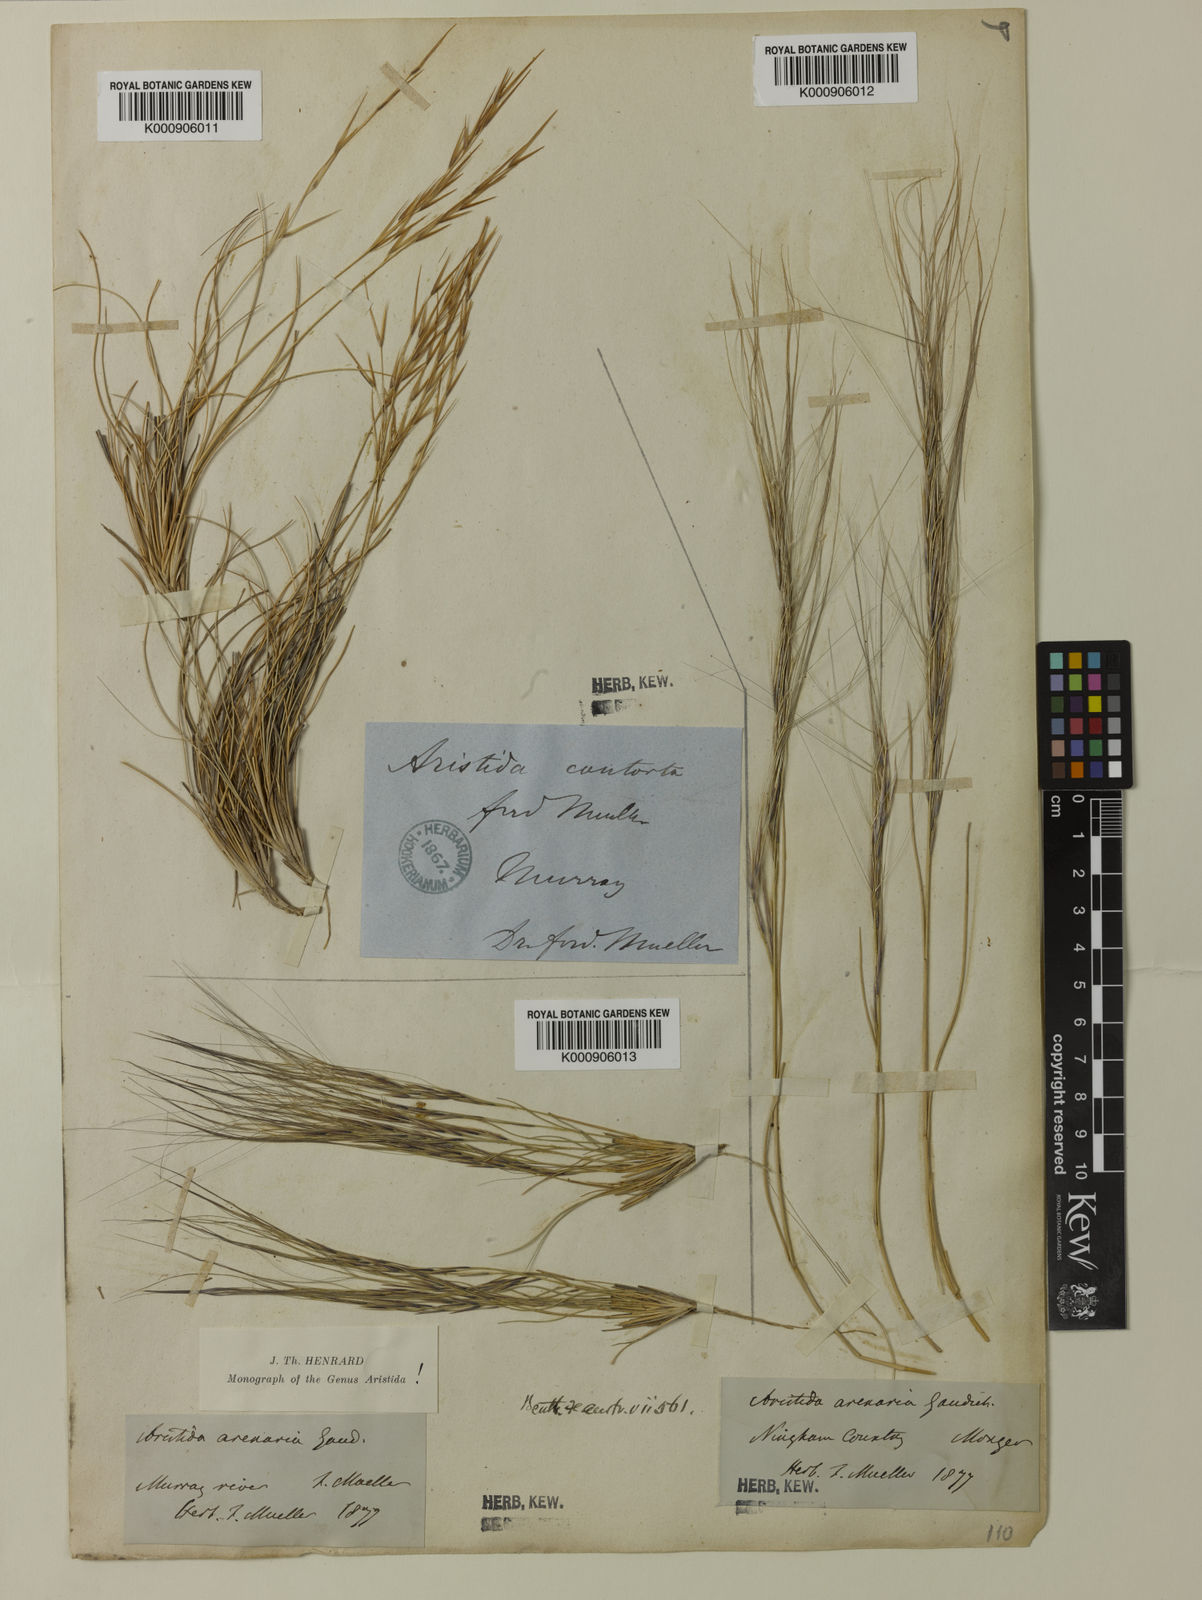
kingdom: Plantae
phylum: Tracheophyta
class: Liliopsida
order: Poales
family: Poaceae
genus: Aristida
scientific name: Aristida contorta
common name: Bunch kerosene grass
